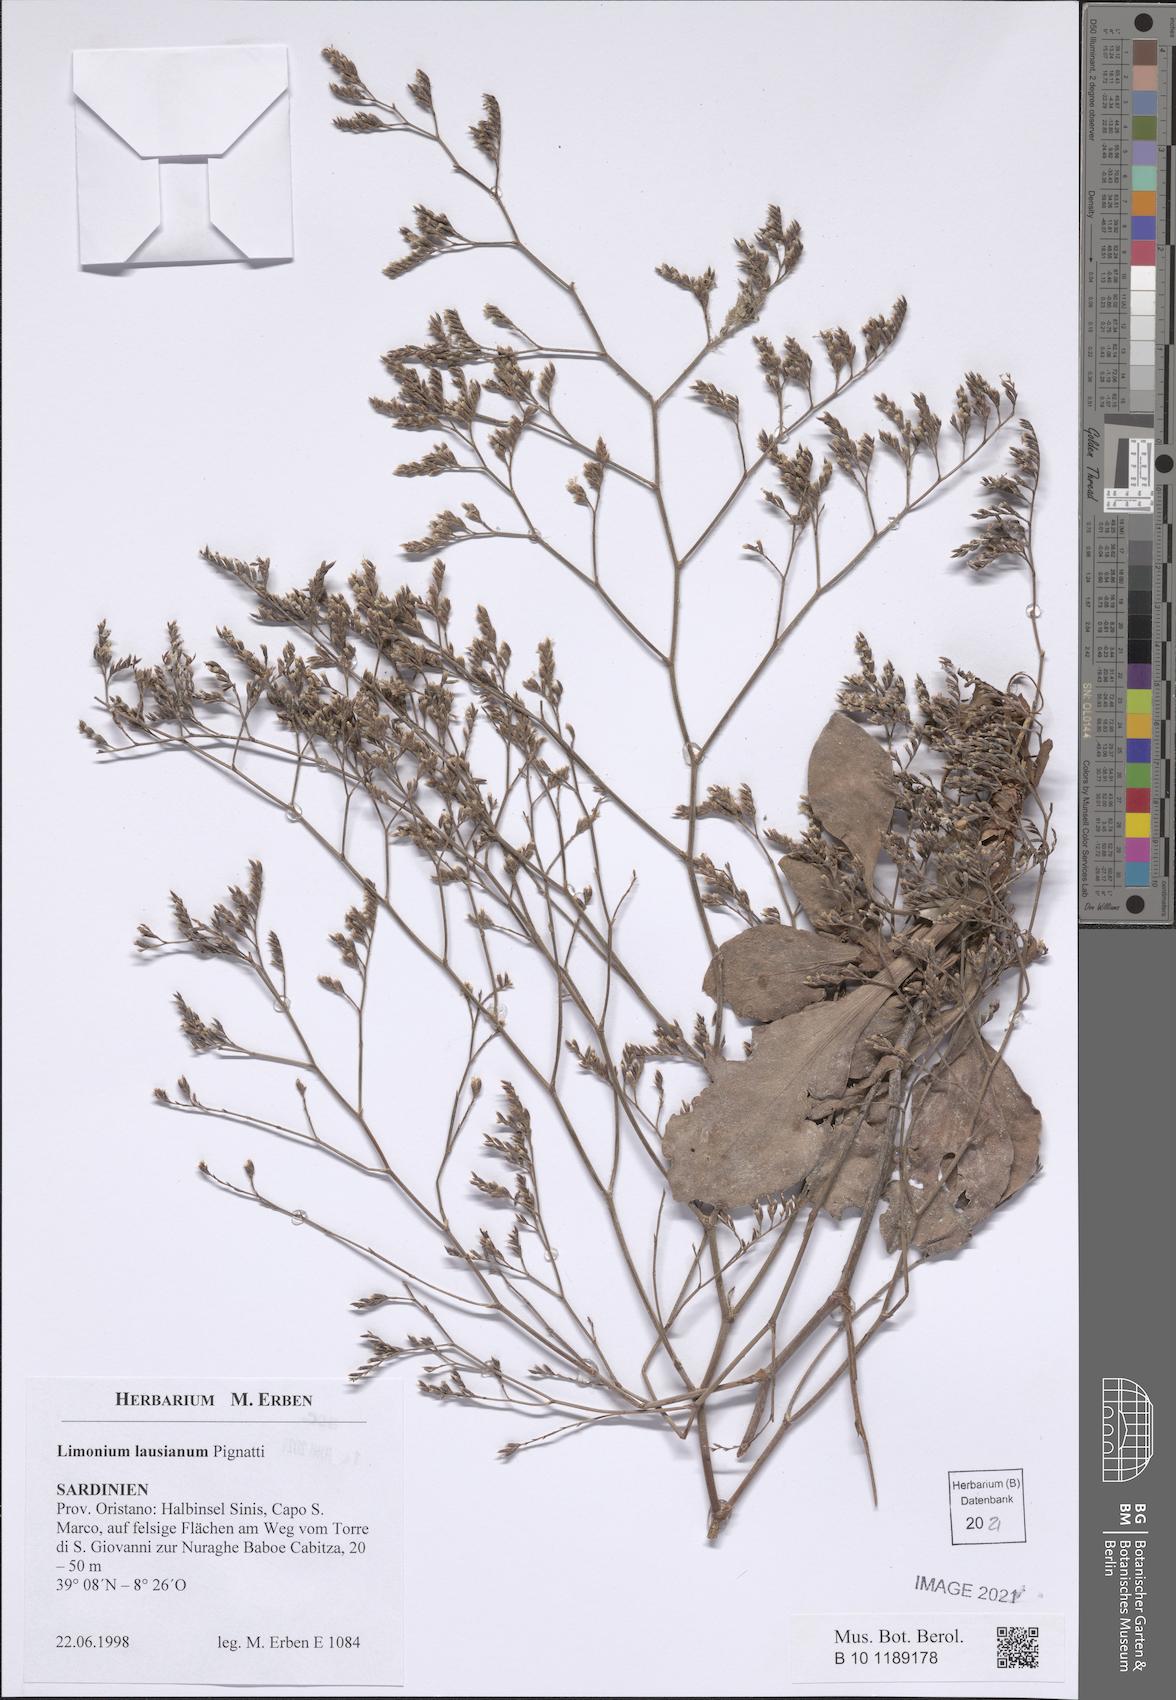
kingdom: Plantae
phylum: Tracheophyta
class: Magnoliopsida
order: Caryophyllales
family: Plumbaginaceae
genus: Limonium
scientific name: Limonium lausianum
